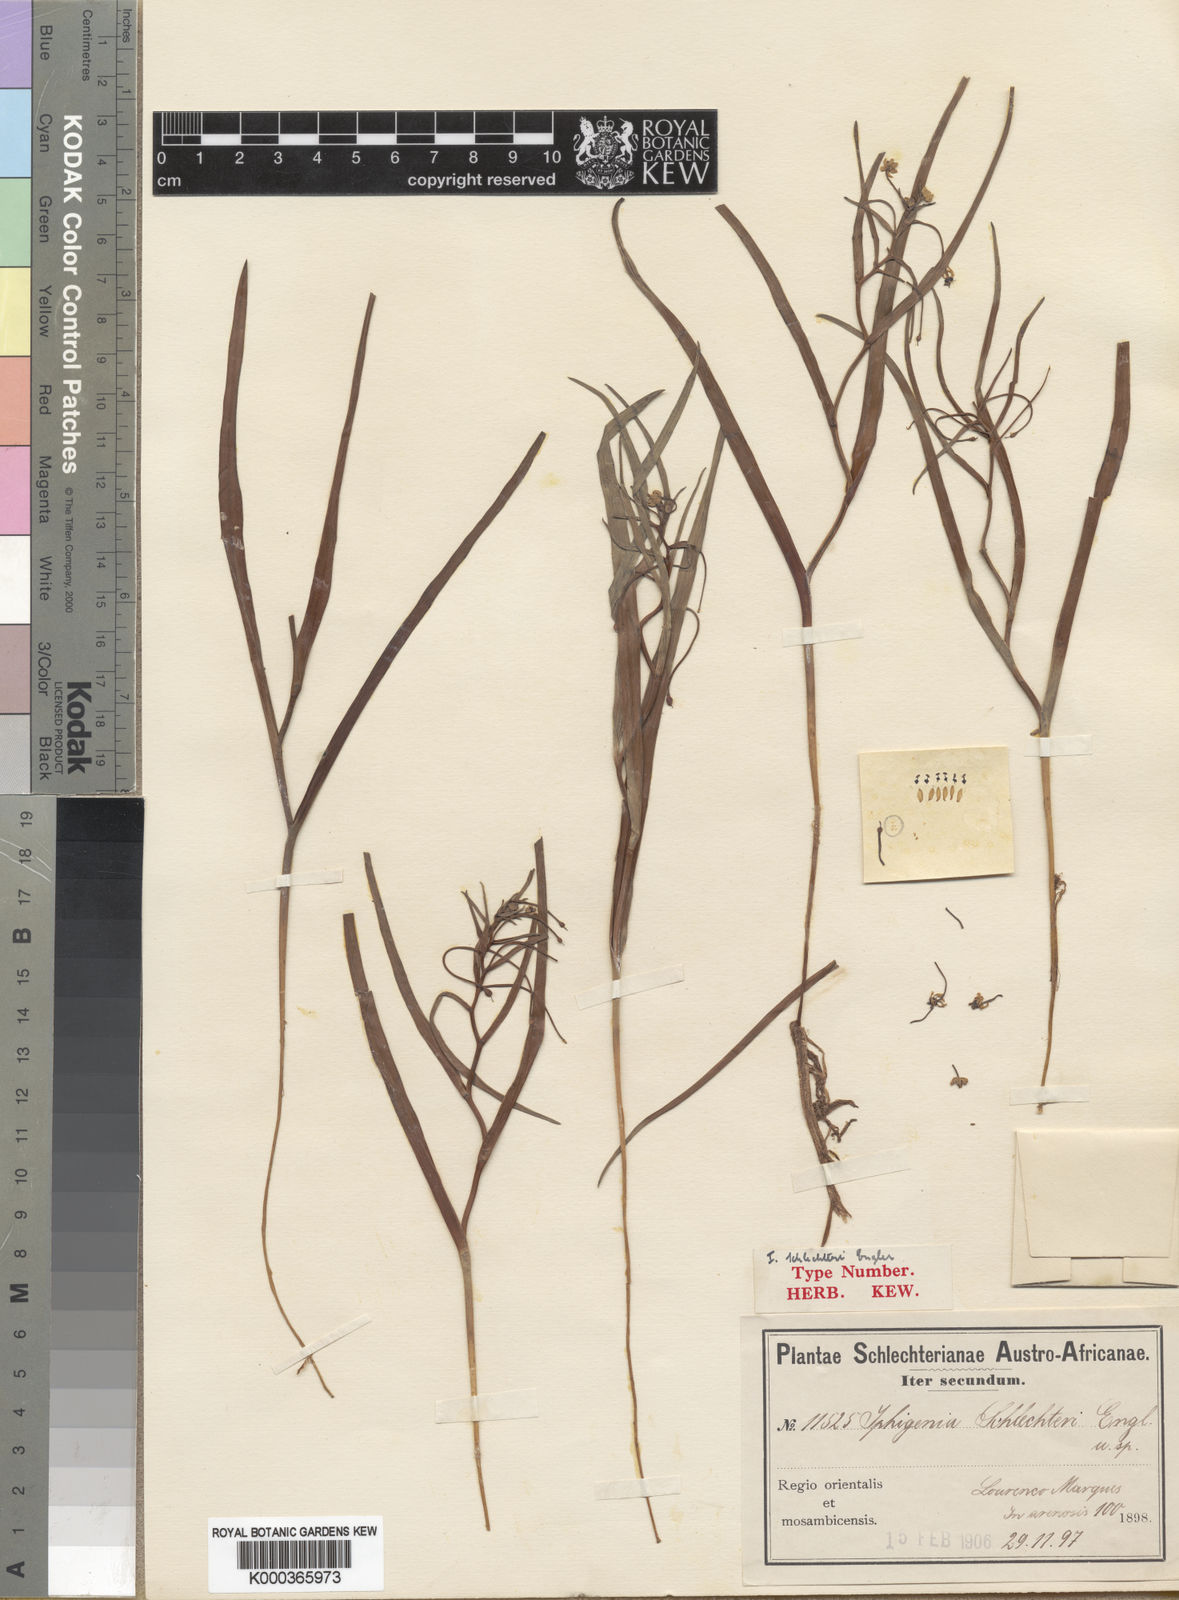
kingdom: Plantae
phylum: Tracheophyta
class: Liliopsida
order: Liliales
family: Colchicaceae
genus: Camptorrhiza
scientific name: Camptorrhiza strumosa
